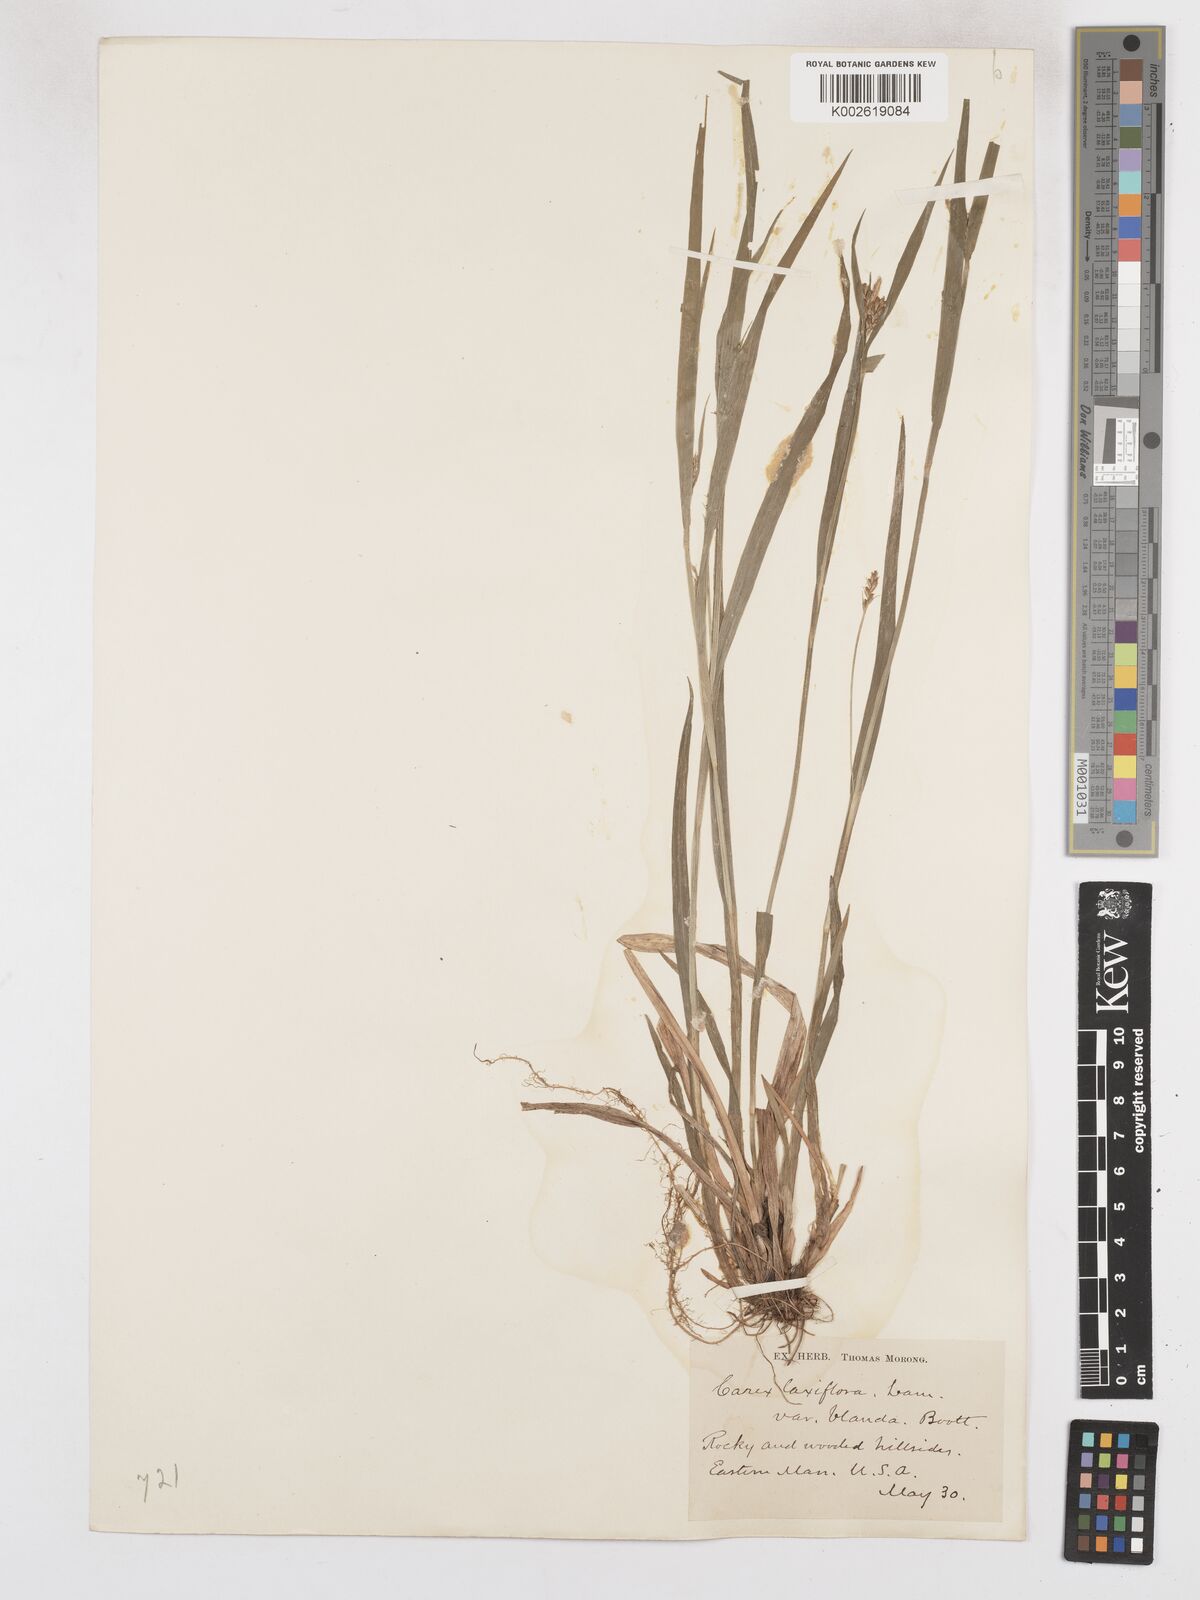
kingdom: Plantae
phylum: Tracheophyta
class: Liliopsida
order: Poales
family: Cyperaceae
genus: Carex
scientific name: Carex blanda
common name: Bland sedge
